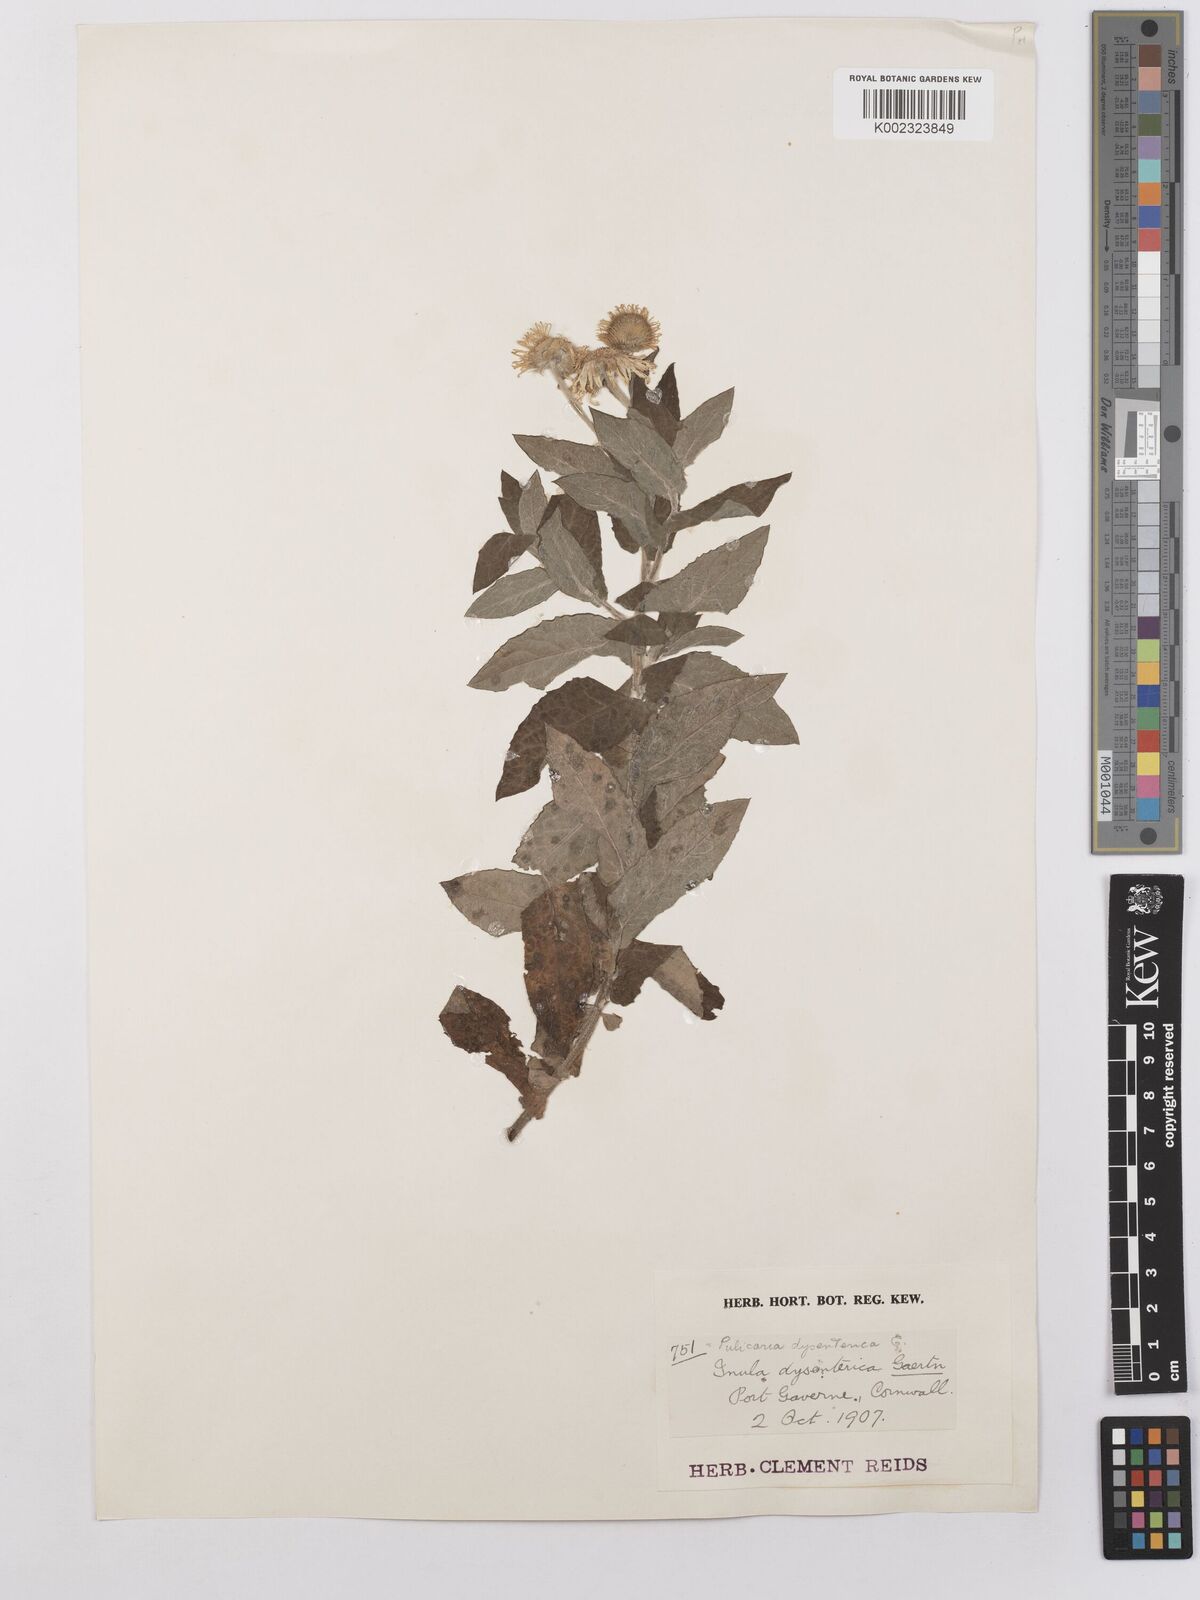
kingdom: Plantae
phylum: Tracheophyta
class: Magnoliopsida
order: Asterales
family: Asteraceae
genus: Pulicaria
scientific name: Pulicaria dysenterica
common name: Common fleabane
